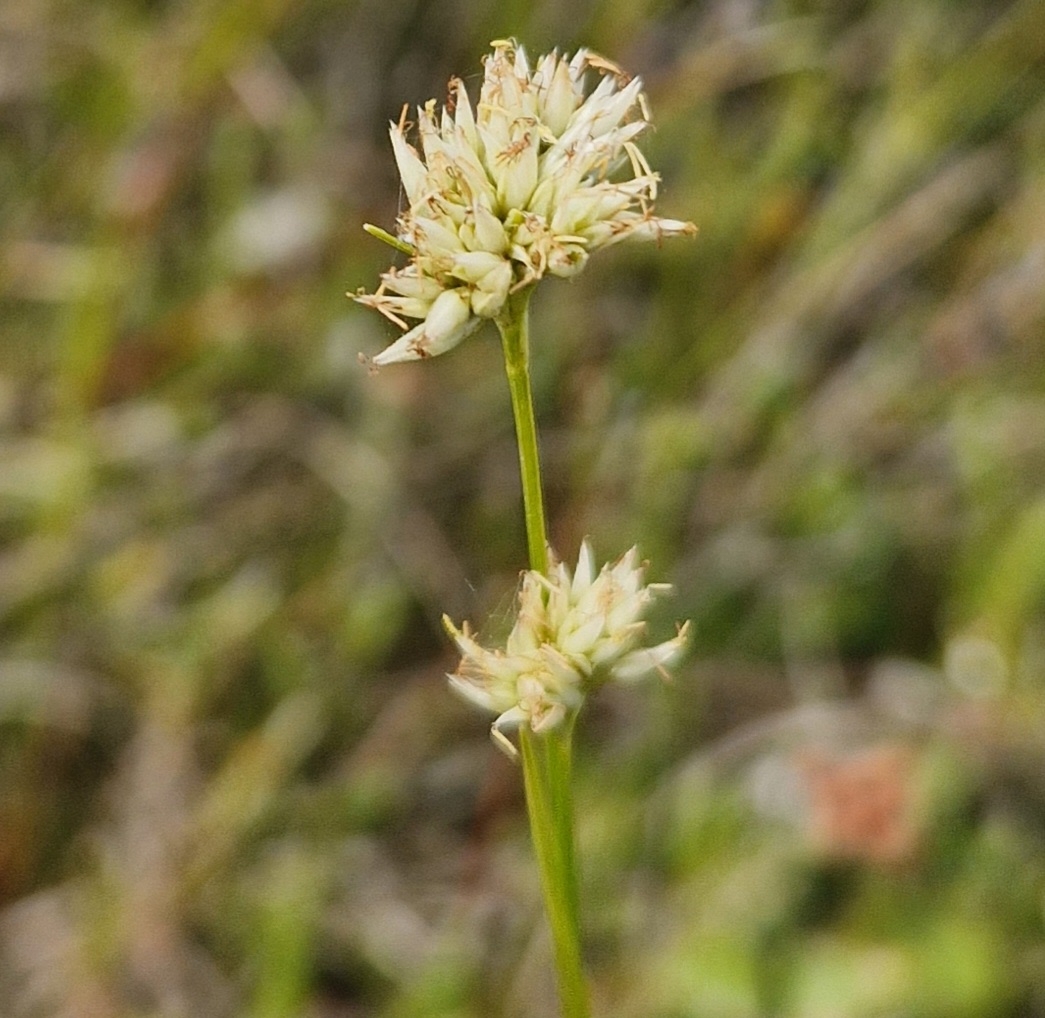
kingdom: Plantae
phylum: Tracheophyta
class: Liliopsida
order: Poales
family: Cyperaceae
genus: Rhynchospora
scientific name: Rhynchospora alba
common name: Hvid næbfrø
